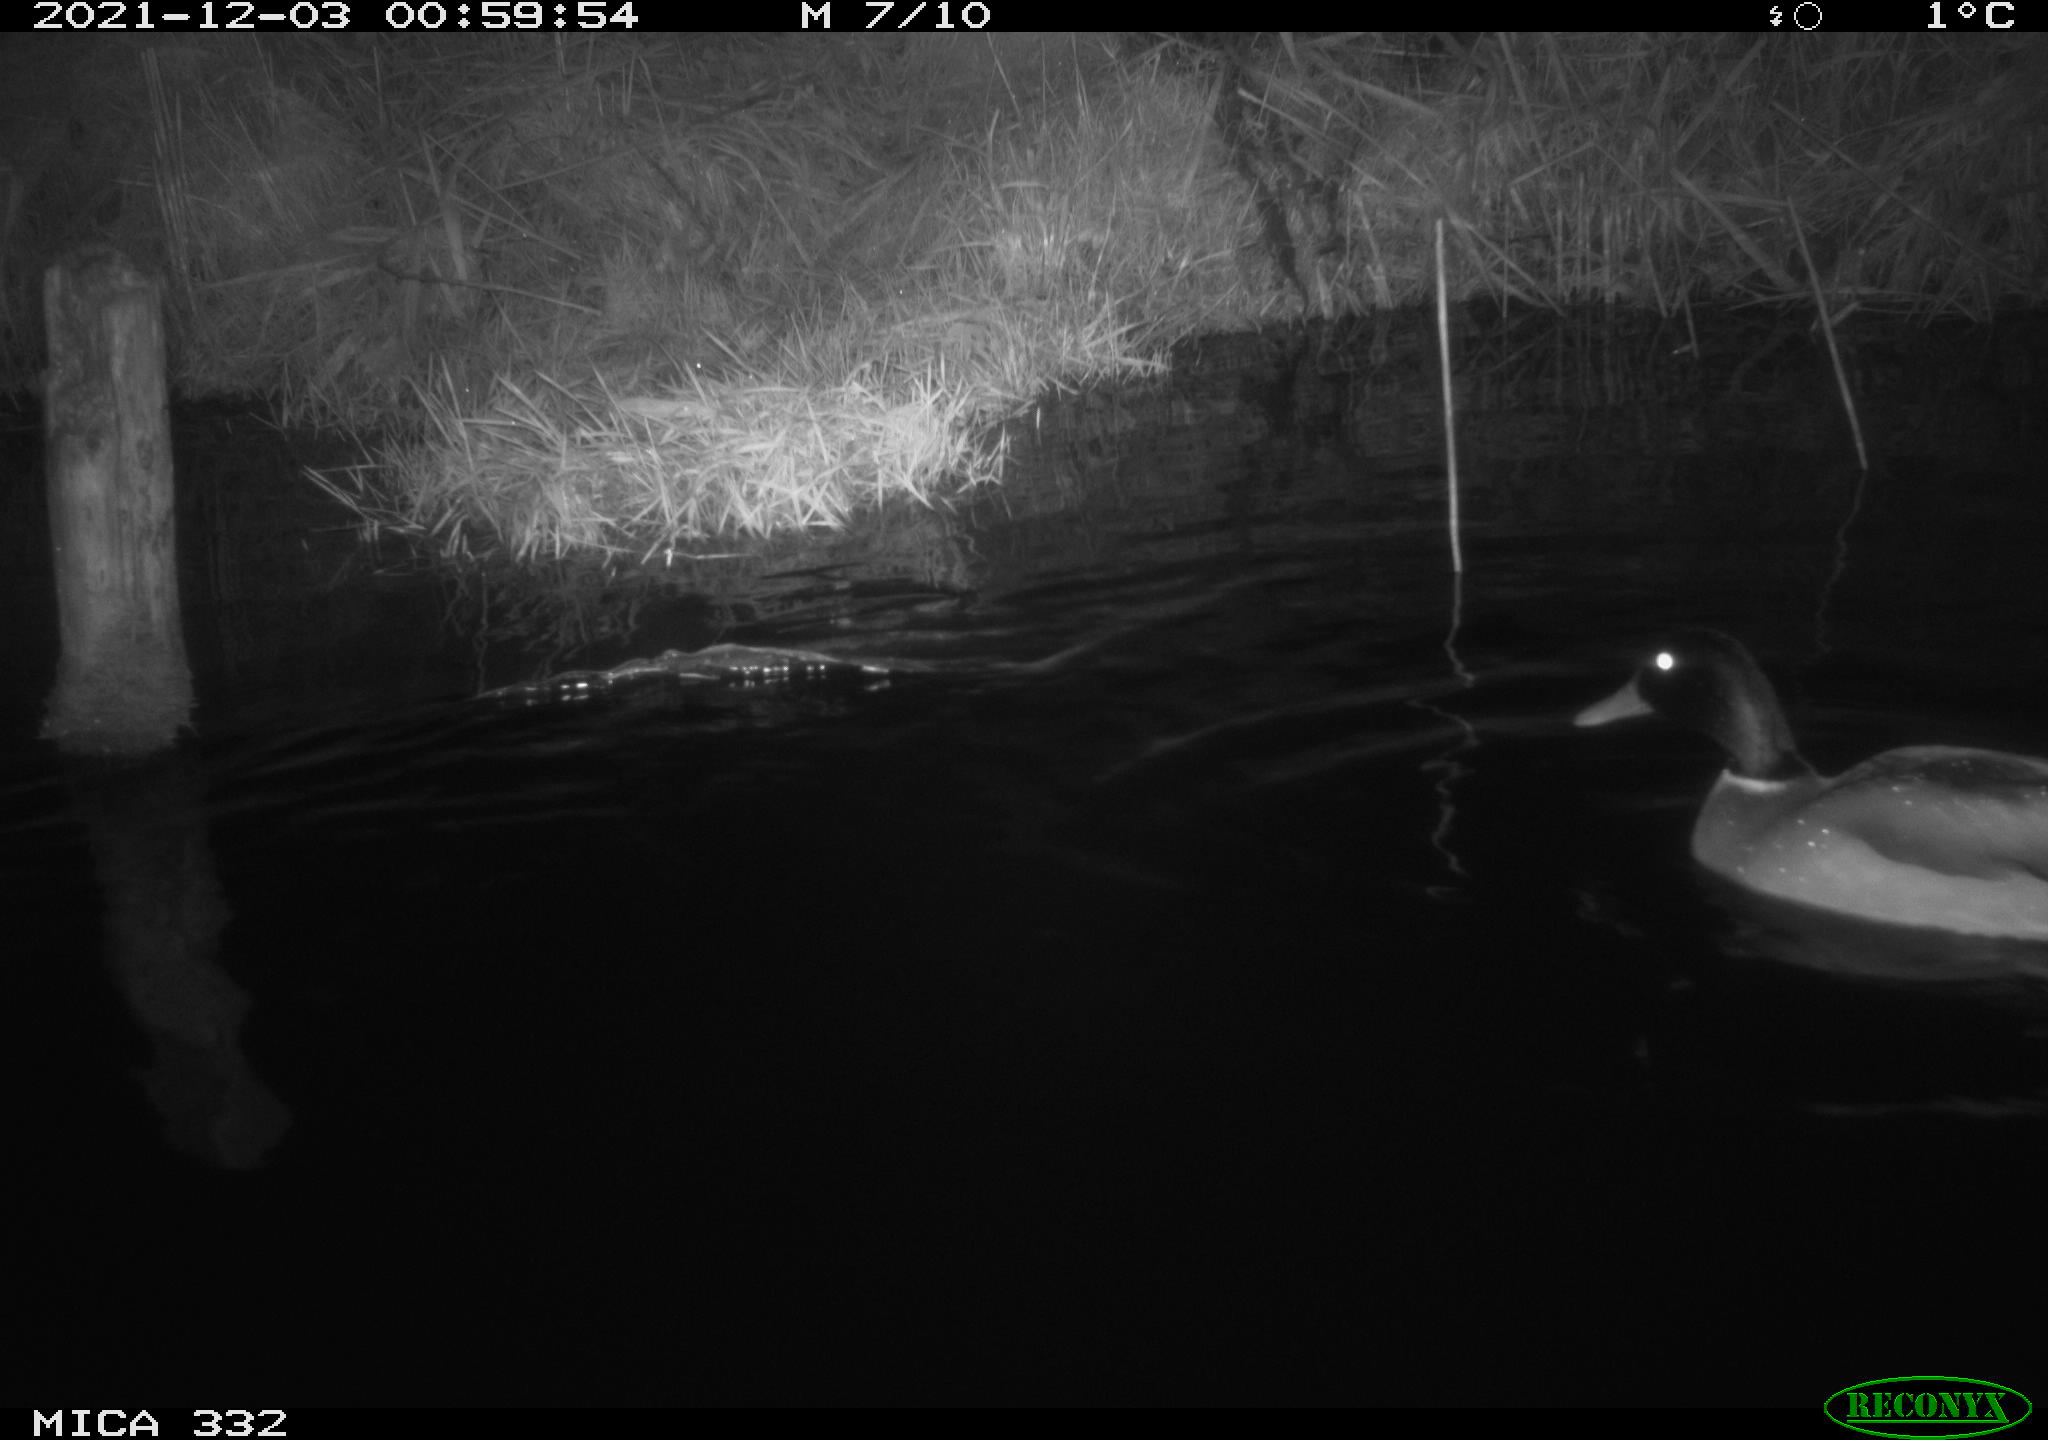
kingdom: Animalia
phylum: Chordata
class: Aves
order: Anseriformes
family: Anatidae
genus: Anas
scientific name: Anas platyrhynchos
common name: Mallard
